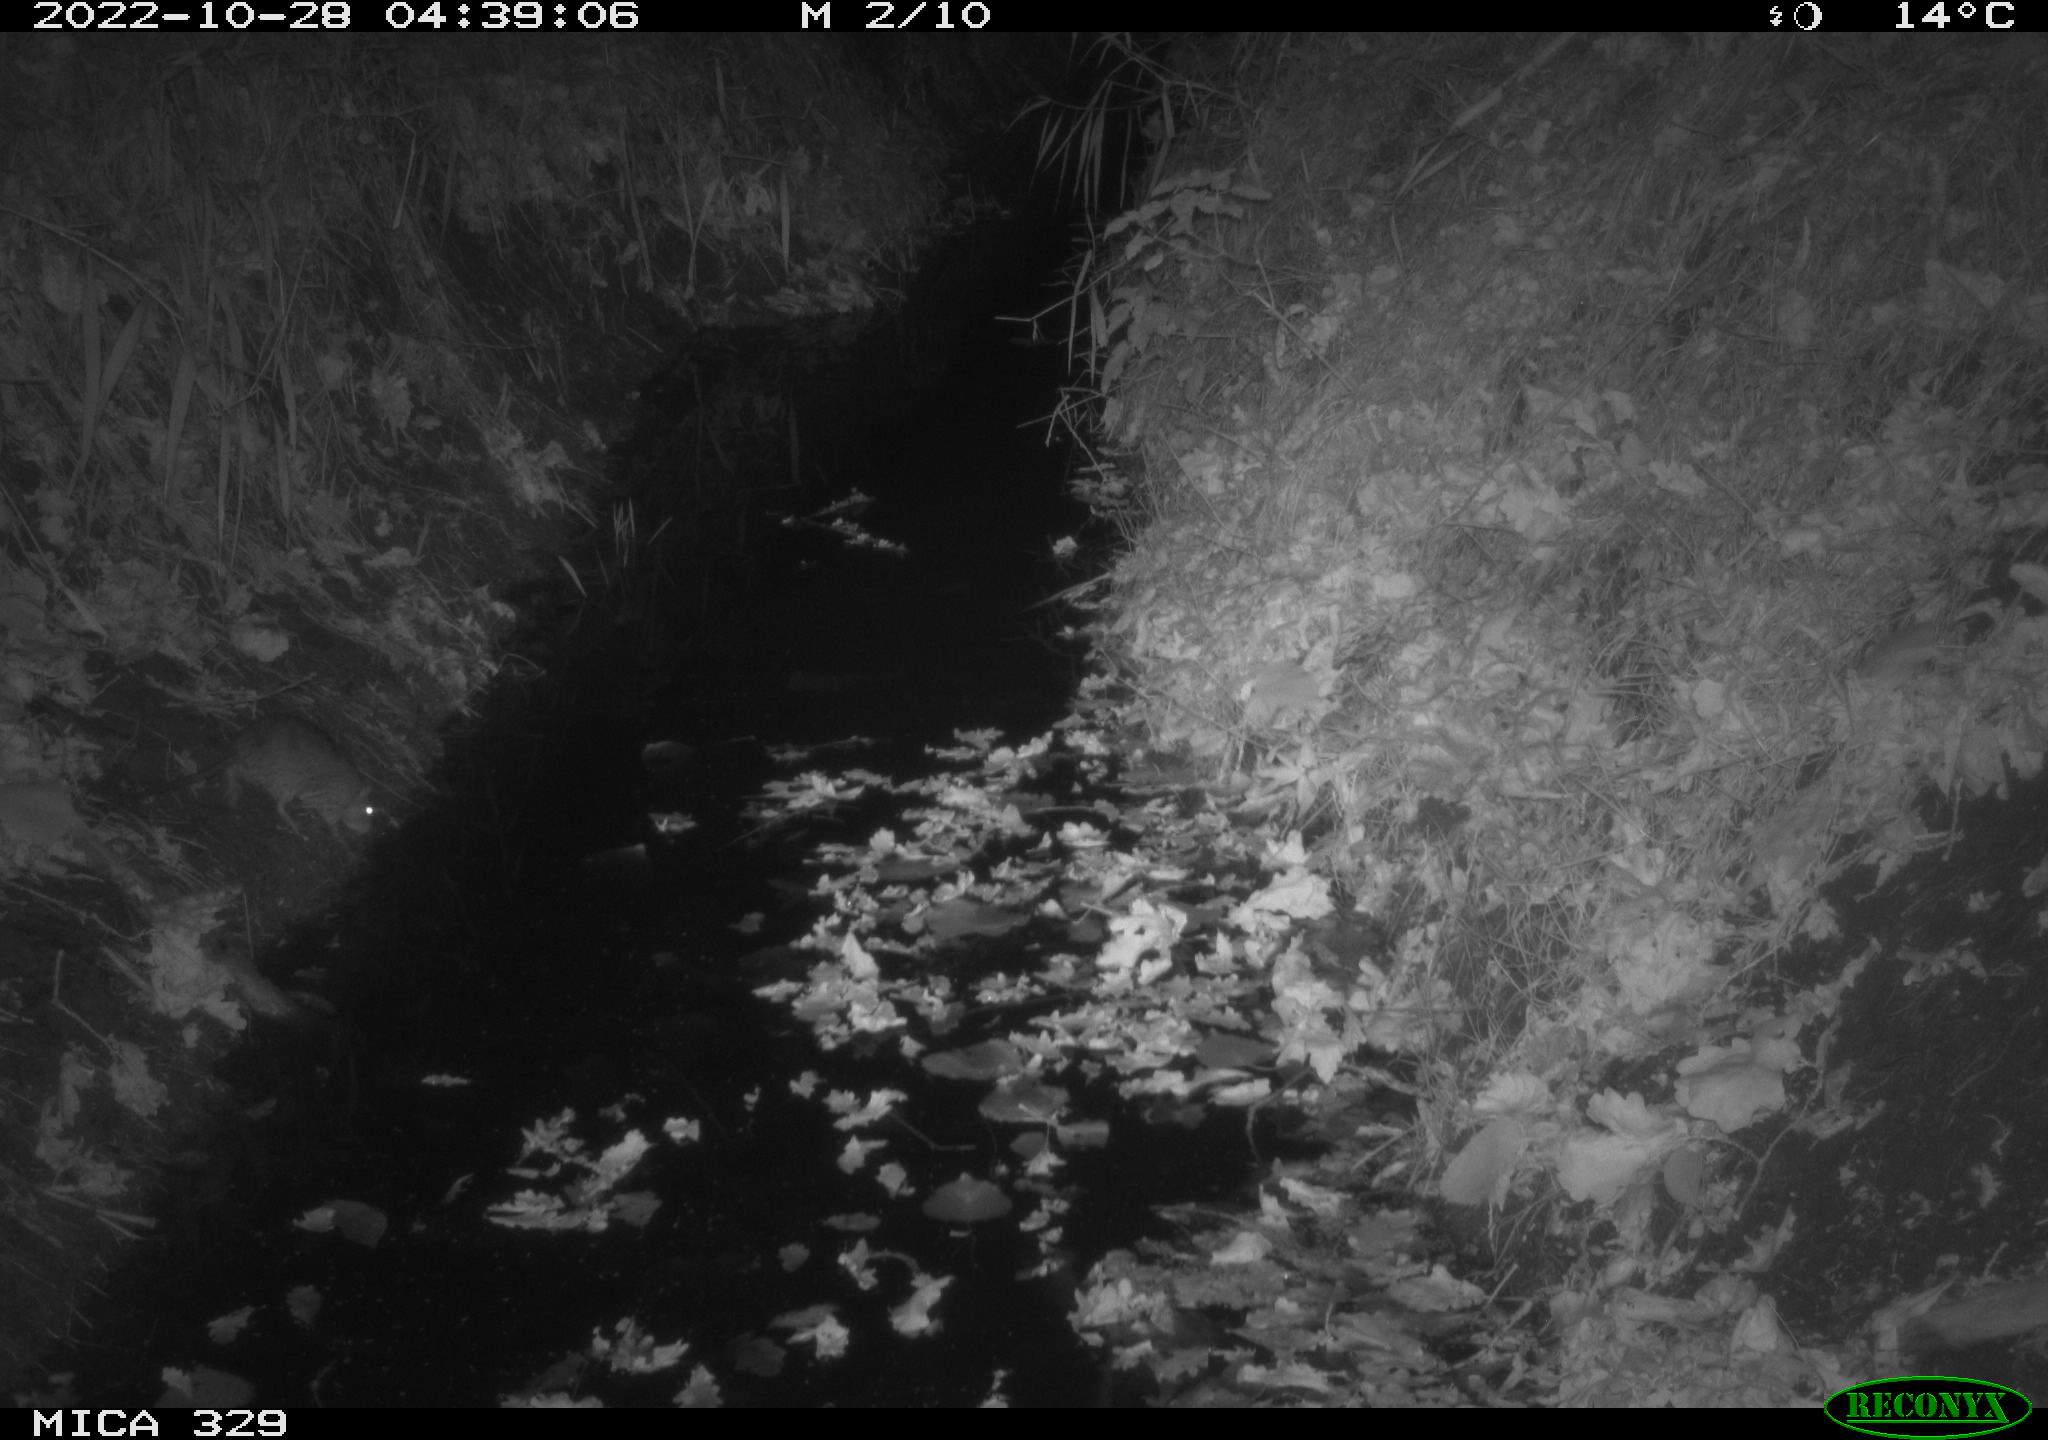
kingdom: Animalia
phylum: Chordata
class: Mammalia
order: Rodentia
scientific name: Rodentia
